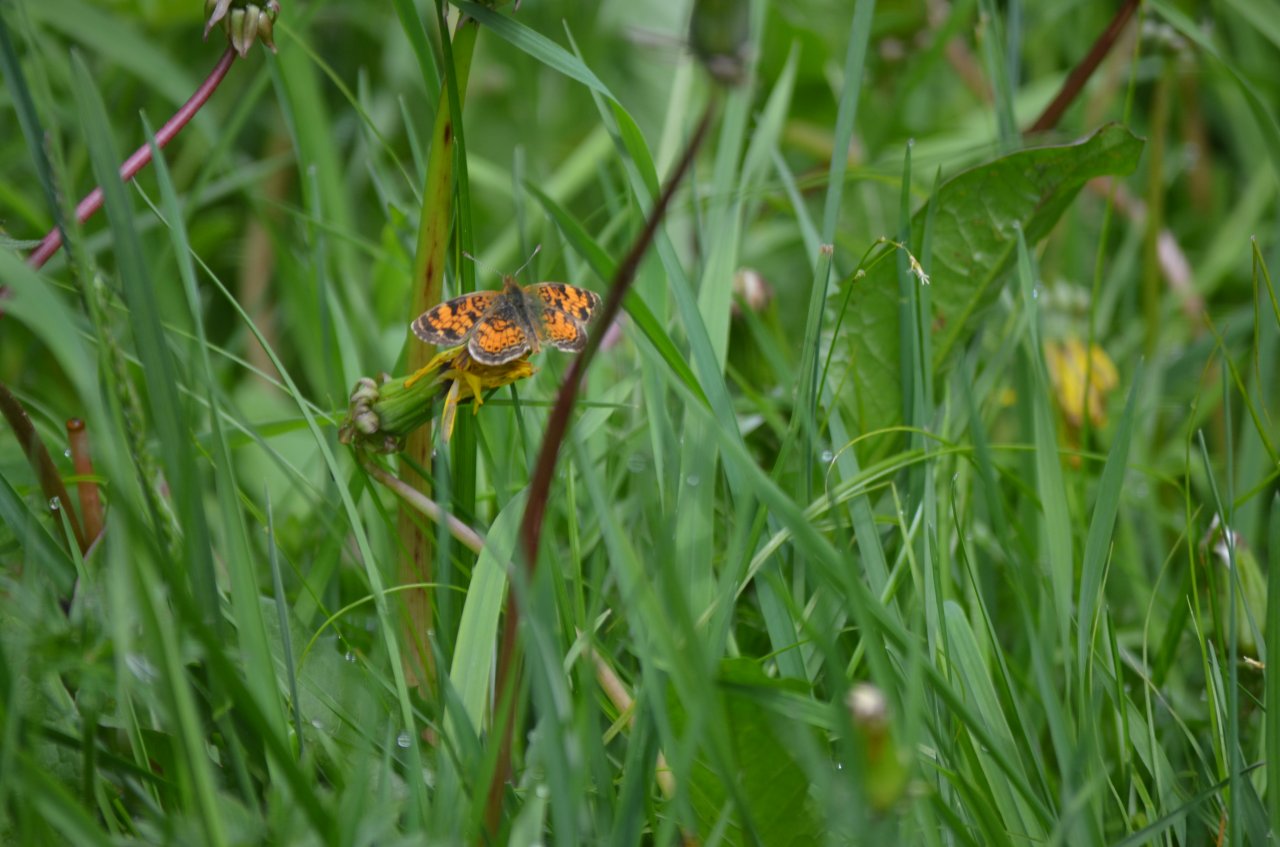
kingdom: Animalia
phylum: Arthropoda
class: Insecta
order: Lepidoptera
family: Nymphalidae
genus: Phyciodes
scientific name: Phyciodes tharos
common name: Pearl Crescent
